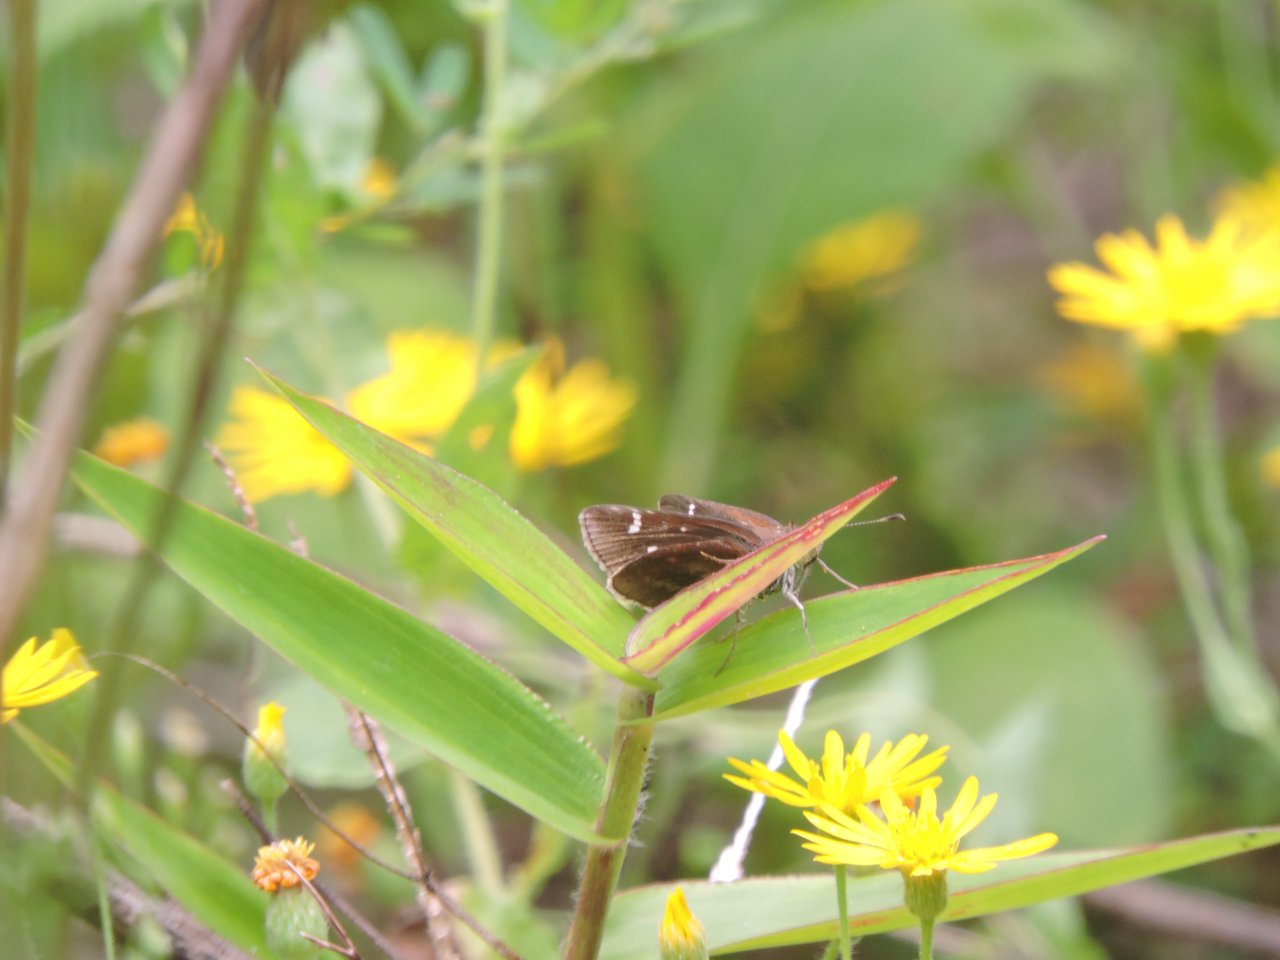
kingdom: Animalia
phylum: Arthropoda
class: Insecta
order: Lepidoptera
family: Hesperiidae
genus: Lerema
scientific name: Lerema accius
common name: Clouded Skipper
